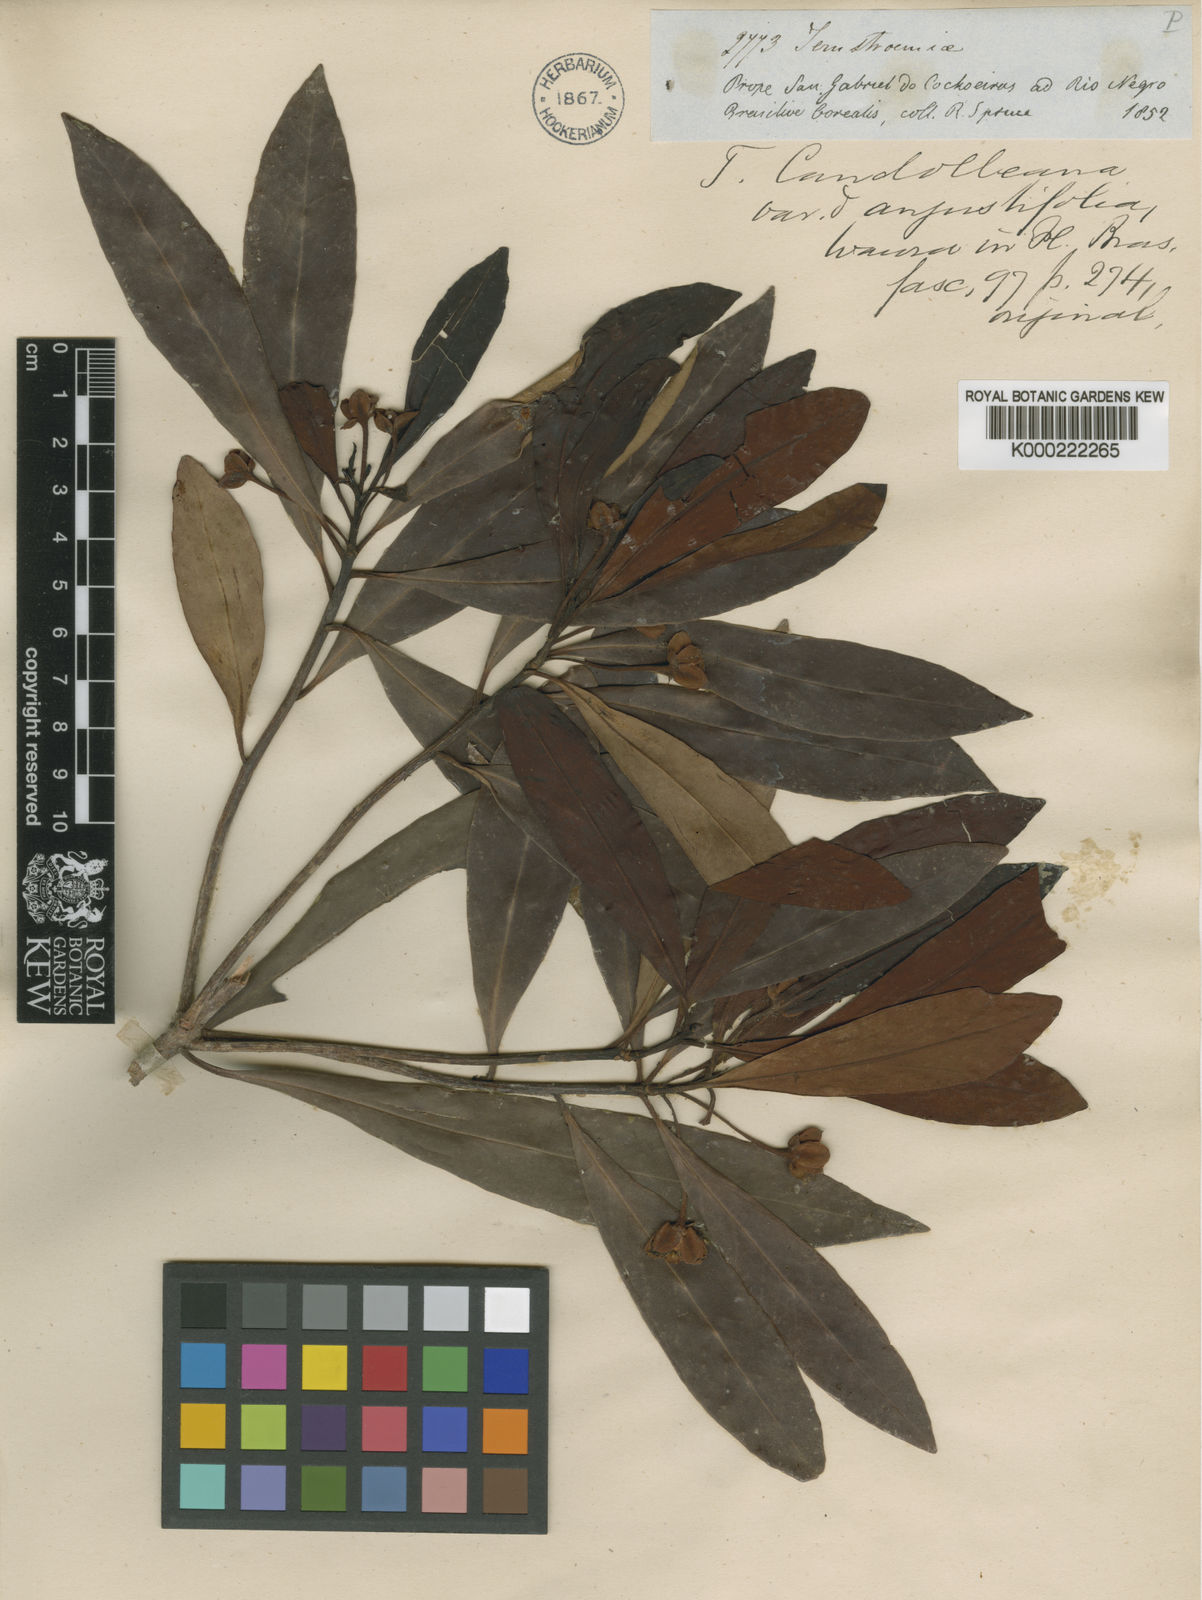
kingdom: Plantae
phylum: Tracheophyta
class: Magnoliopsida
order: Ericales
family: Pentaphylacaceae
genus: Ternstroemia
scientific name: Ternstroemia candolleana
